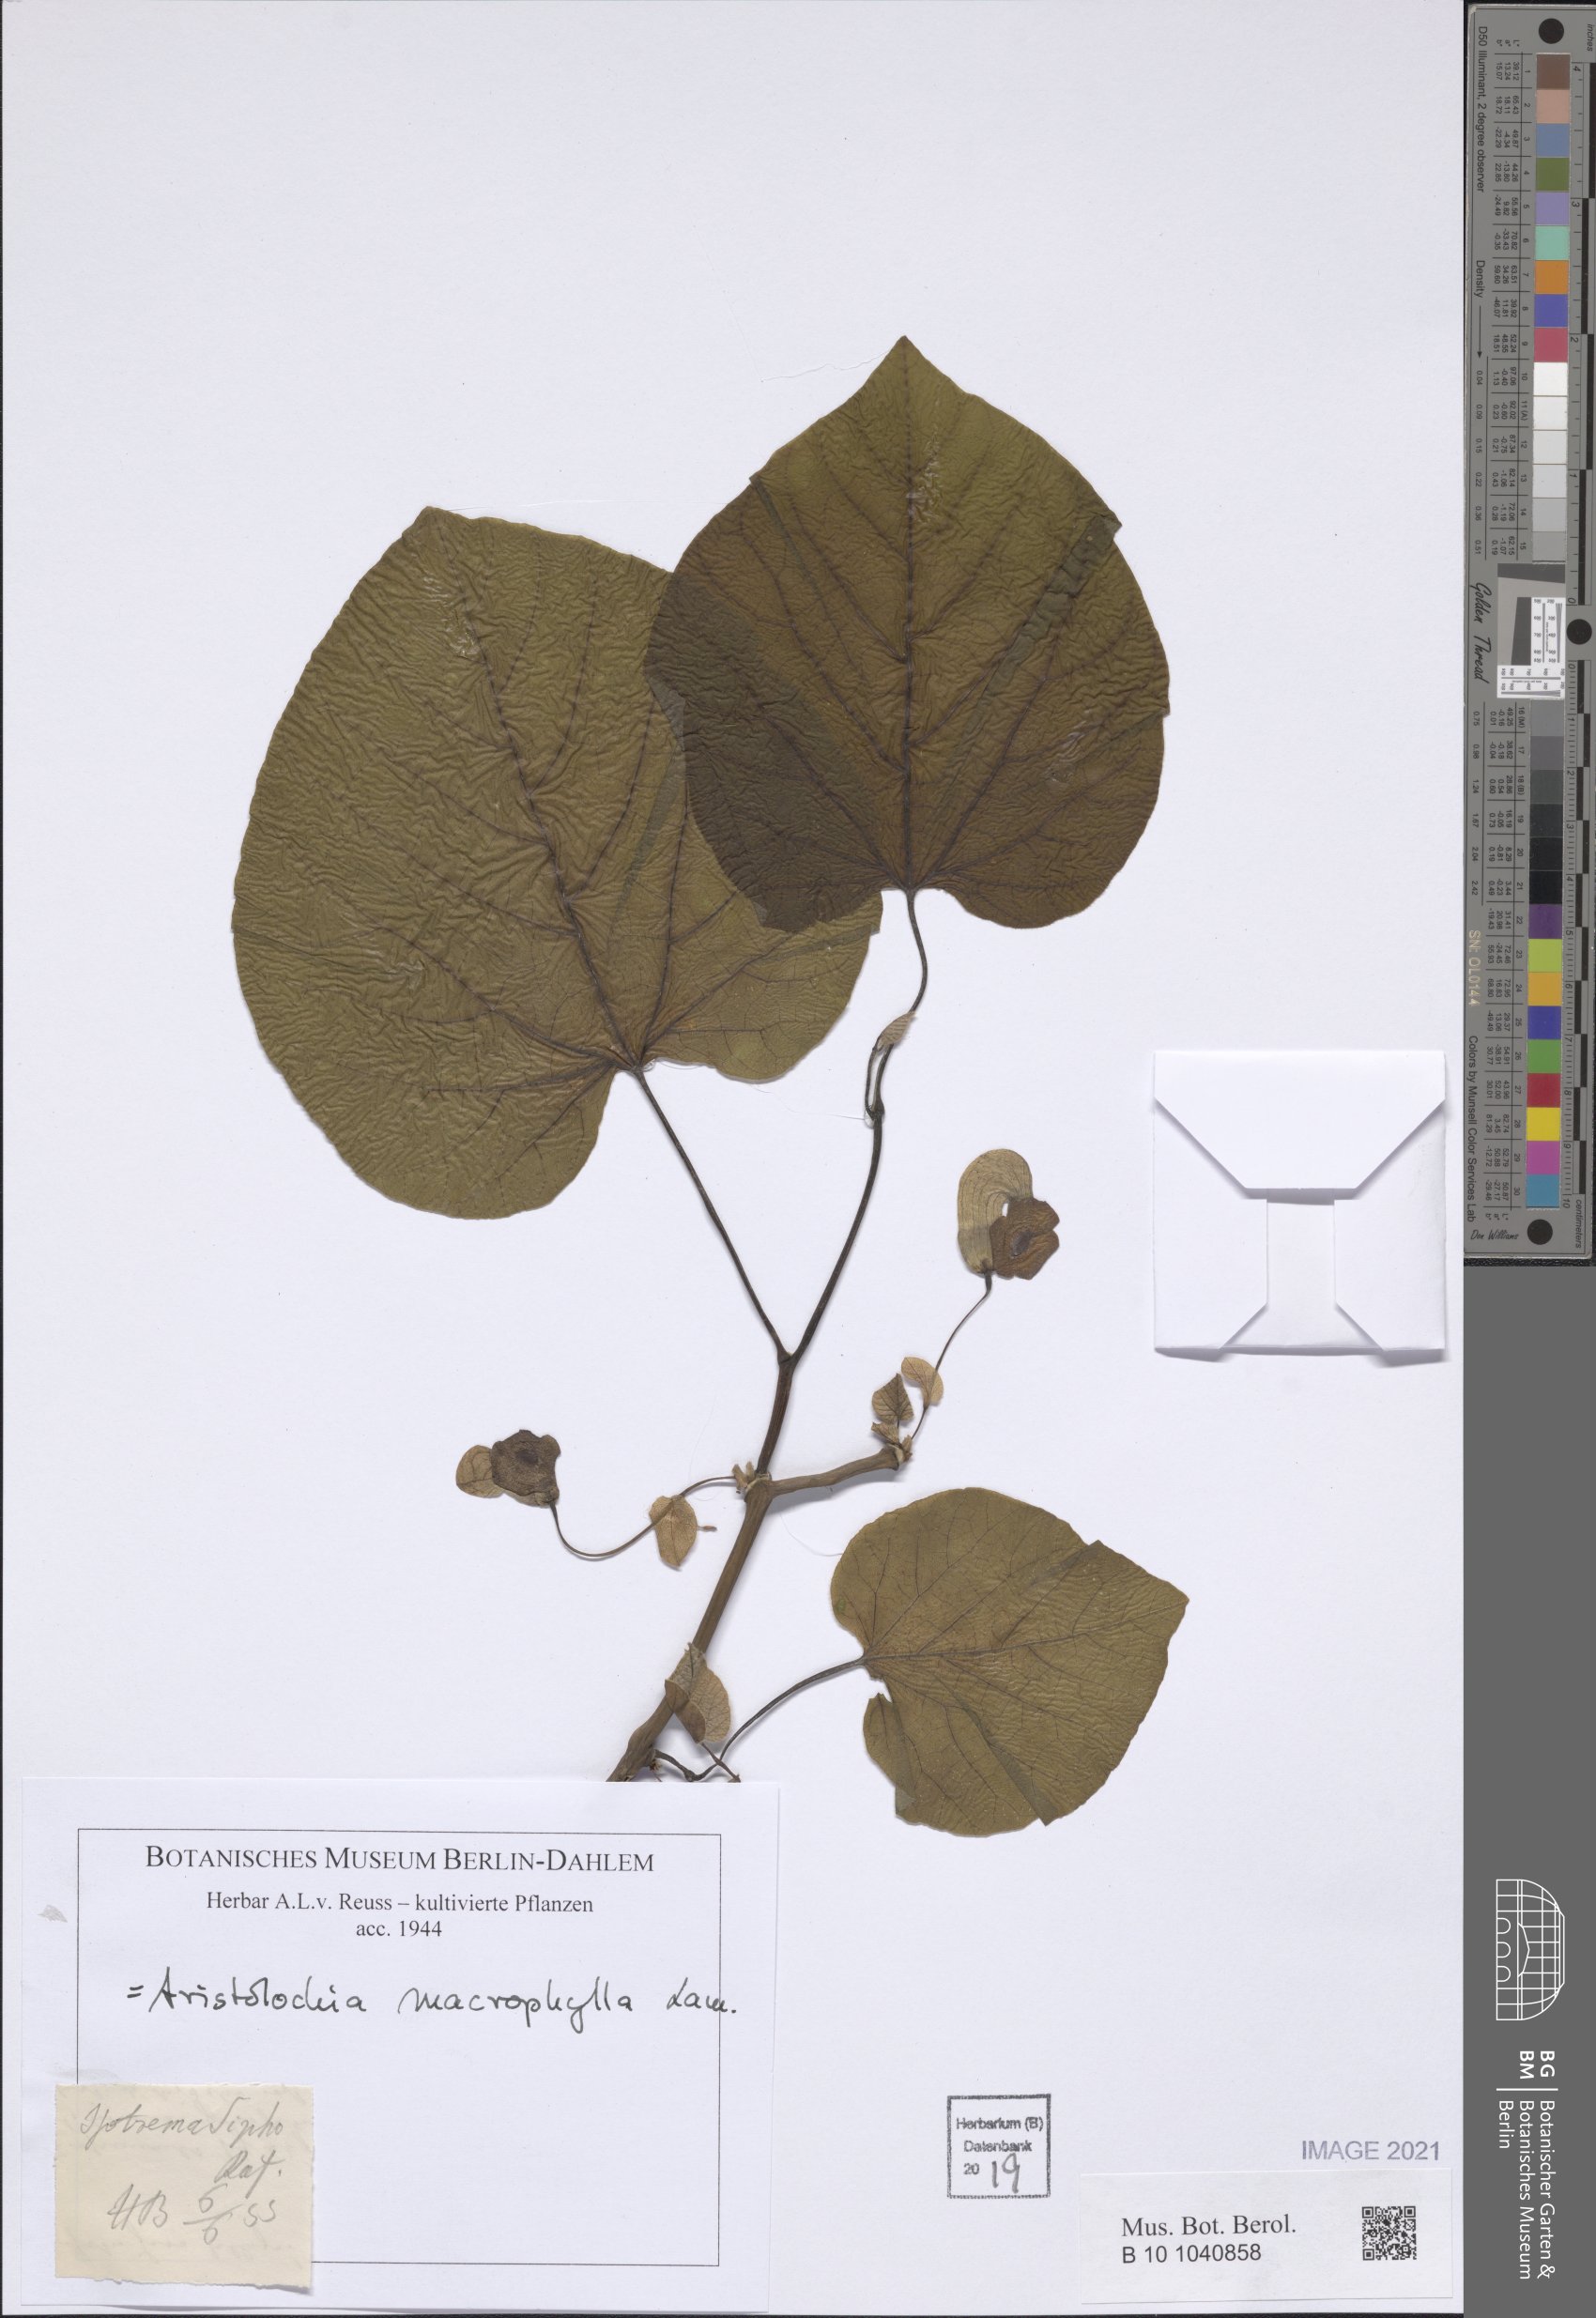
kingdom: Plantae
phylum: Tracheophyta
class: Magnoliopsida
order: Piperales
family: Aristolochiaceae
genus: Isotrema
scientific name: Isotrema macrophyllum
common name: Dutchman's-pipe
